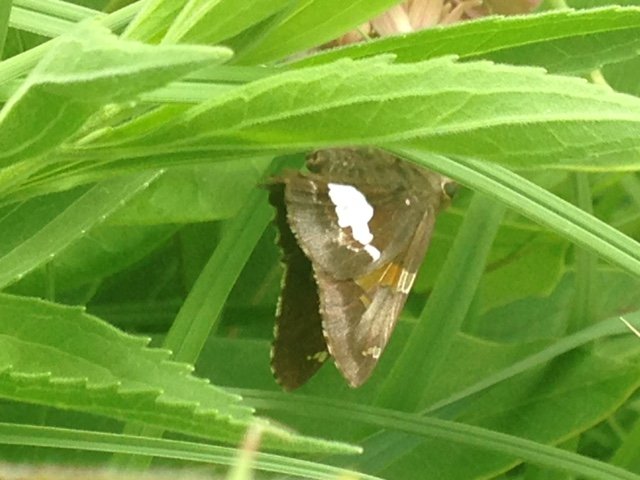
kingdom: Animalia
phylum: Arthropoda
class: Insecta
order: Lepidoptera
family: Hesperiidae
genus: Epargyreus
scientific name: Epargyreus clarus
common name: Silver-spotted Skipper
